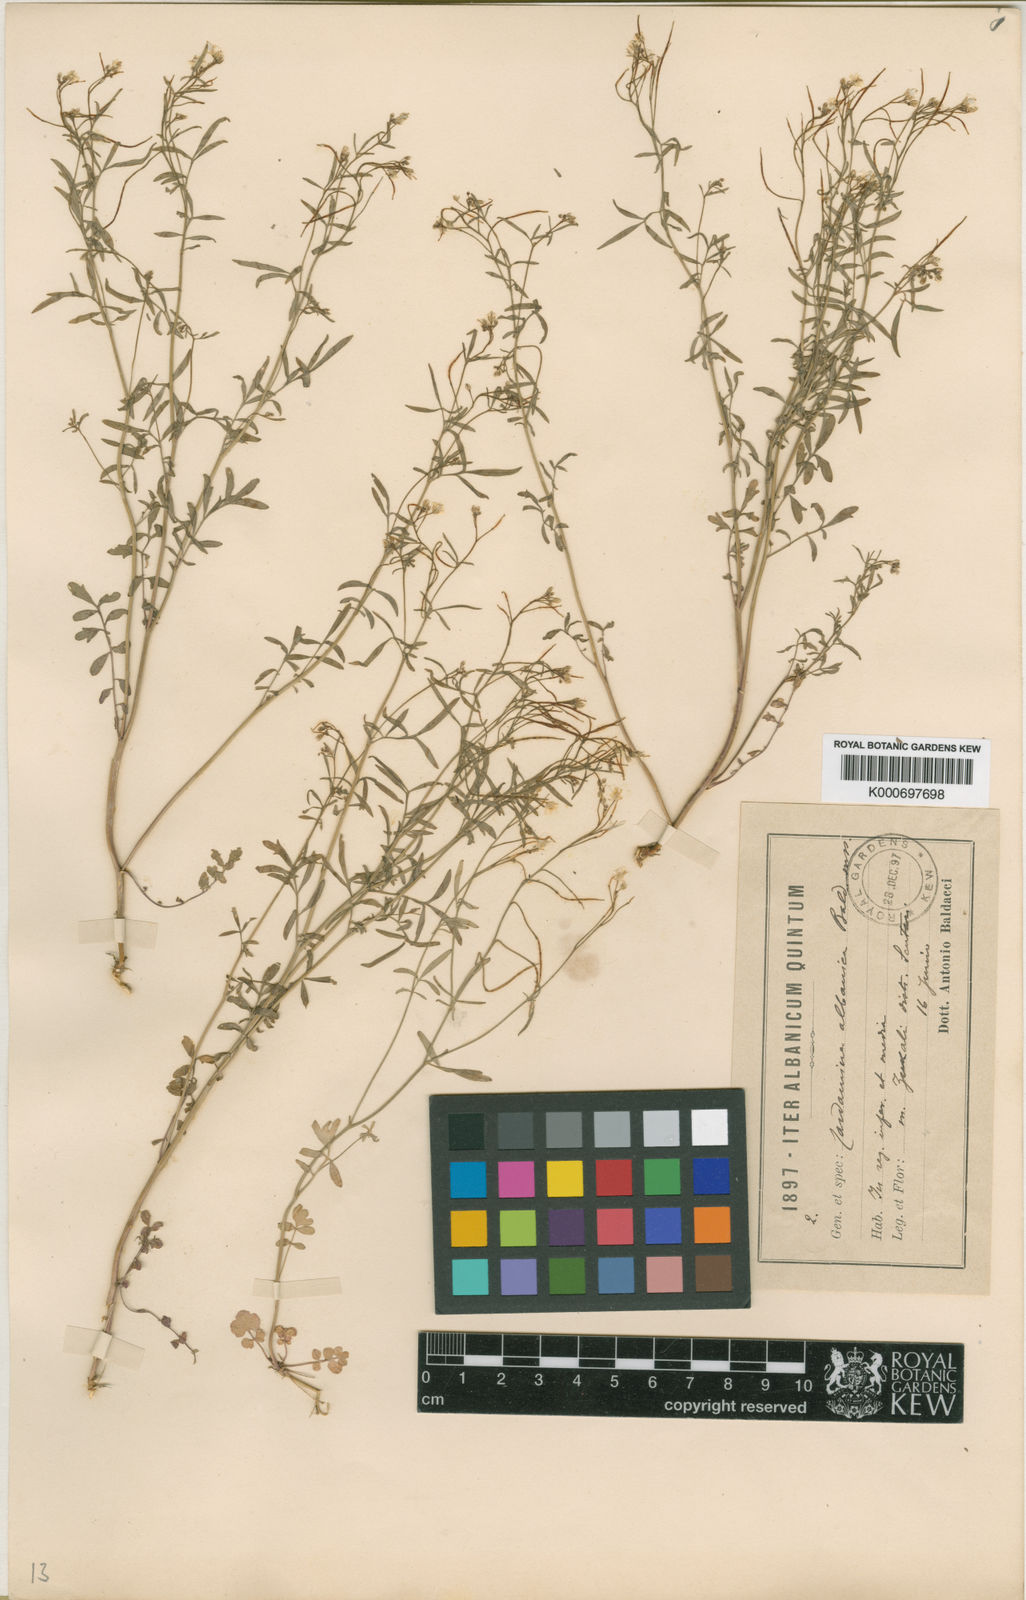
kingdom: Plantae
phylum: Tracheophyta
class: Magnoliopsida
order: Brassicales
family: Brassicaceae
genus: Cardamine
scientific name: Cardamine graeca
